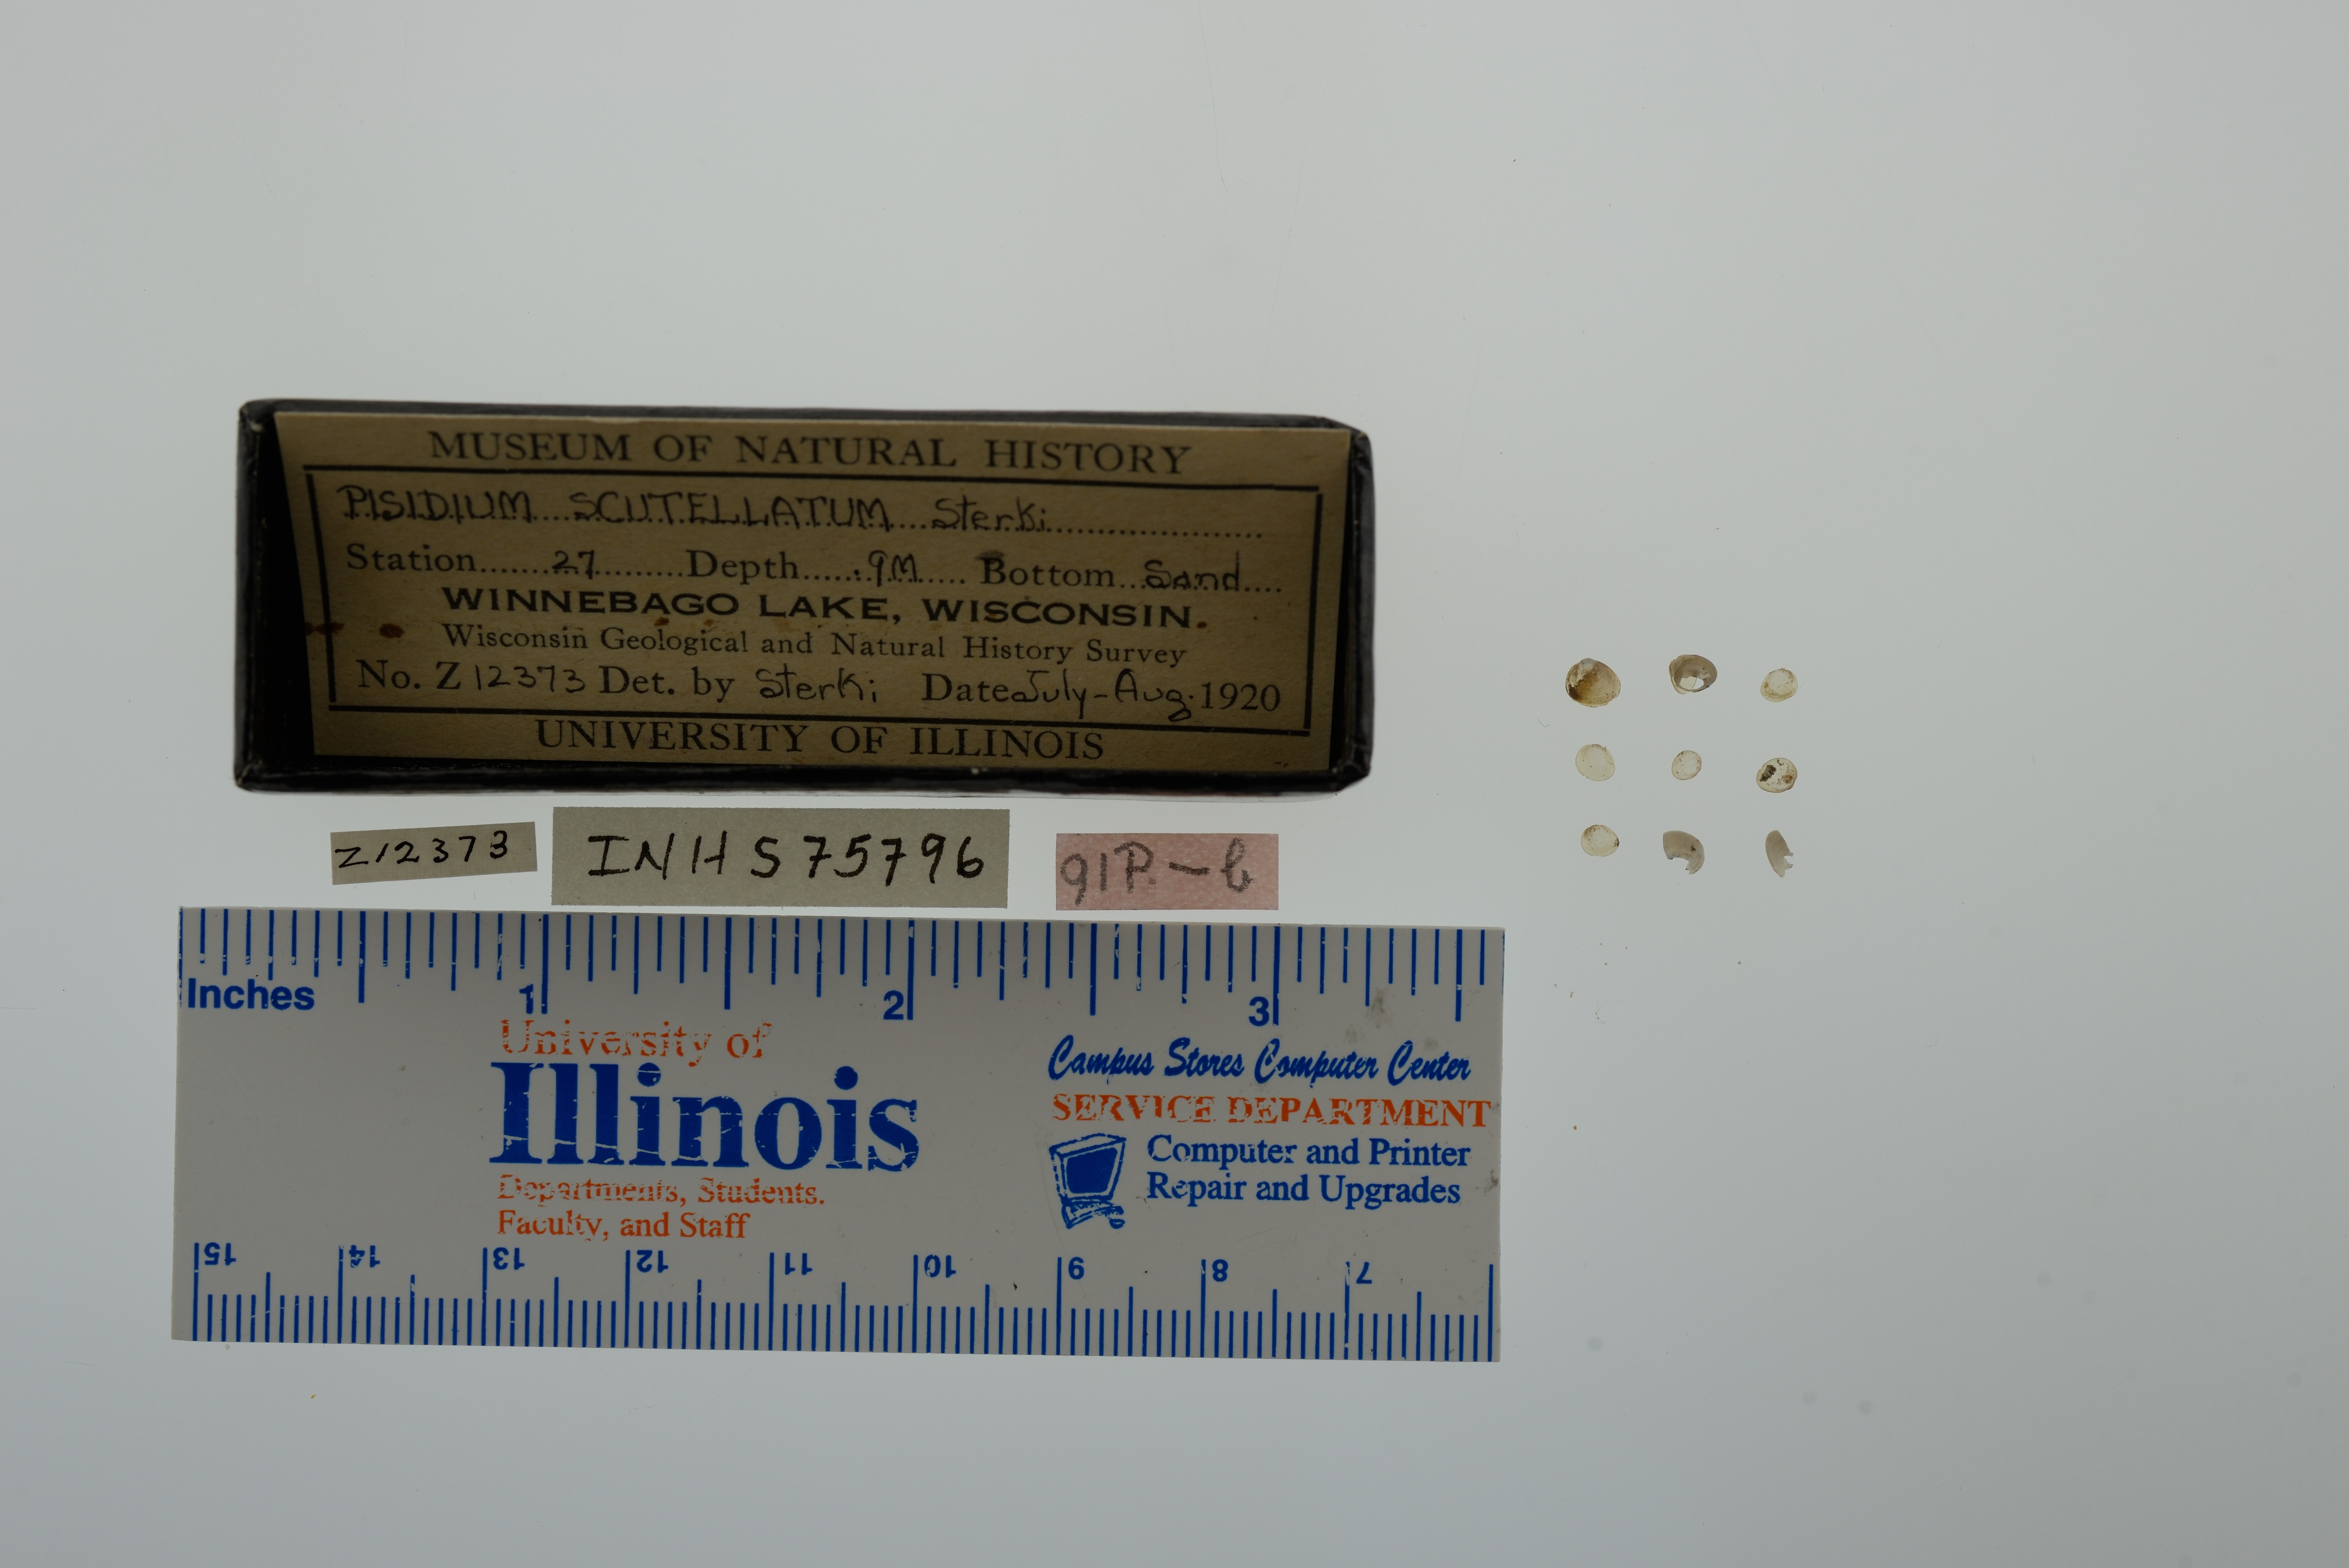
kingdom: Animalia
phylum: Mollusca
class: Bivalvia
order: Sphaeriida
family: Sphaeriidae
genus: Euglesa
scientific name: Euglesa lilljeborgii
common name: Lilljeborg peaclam
